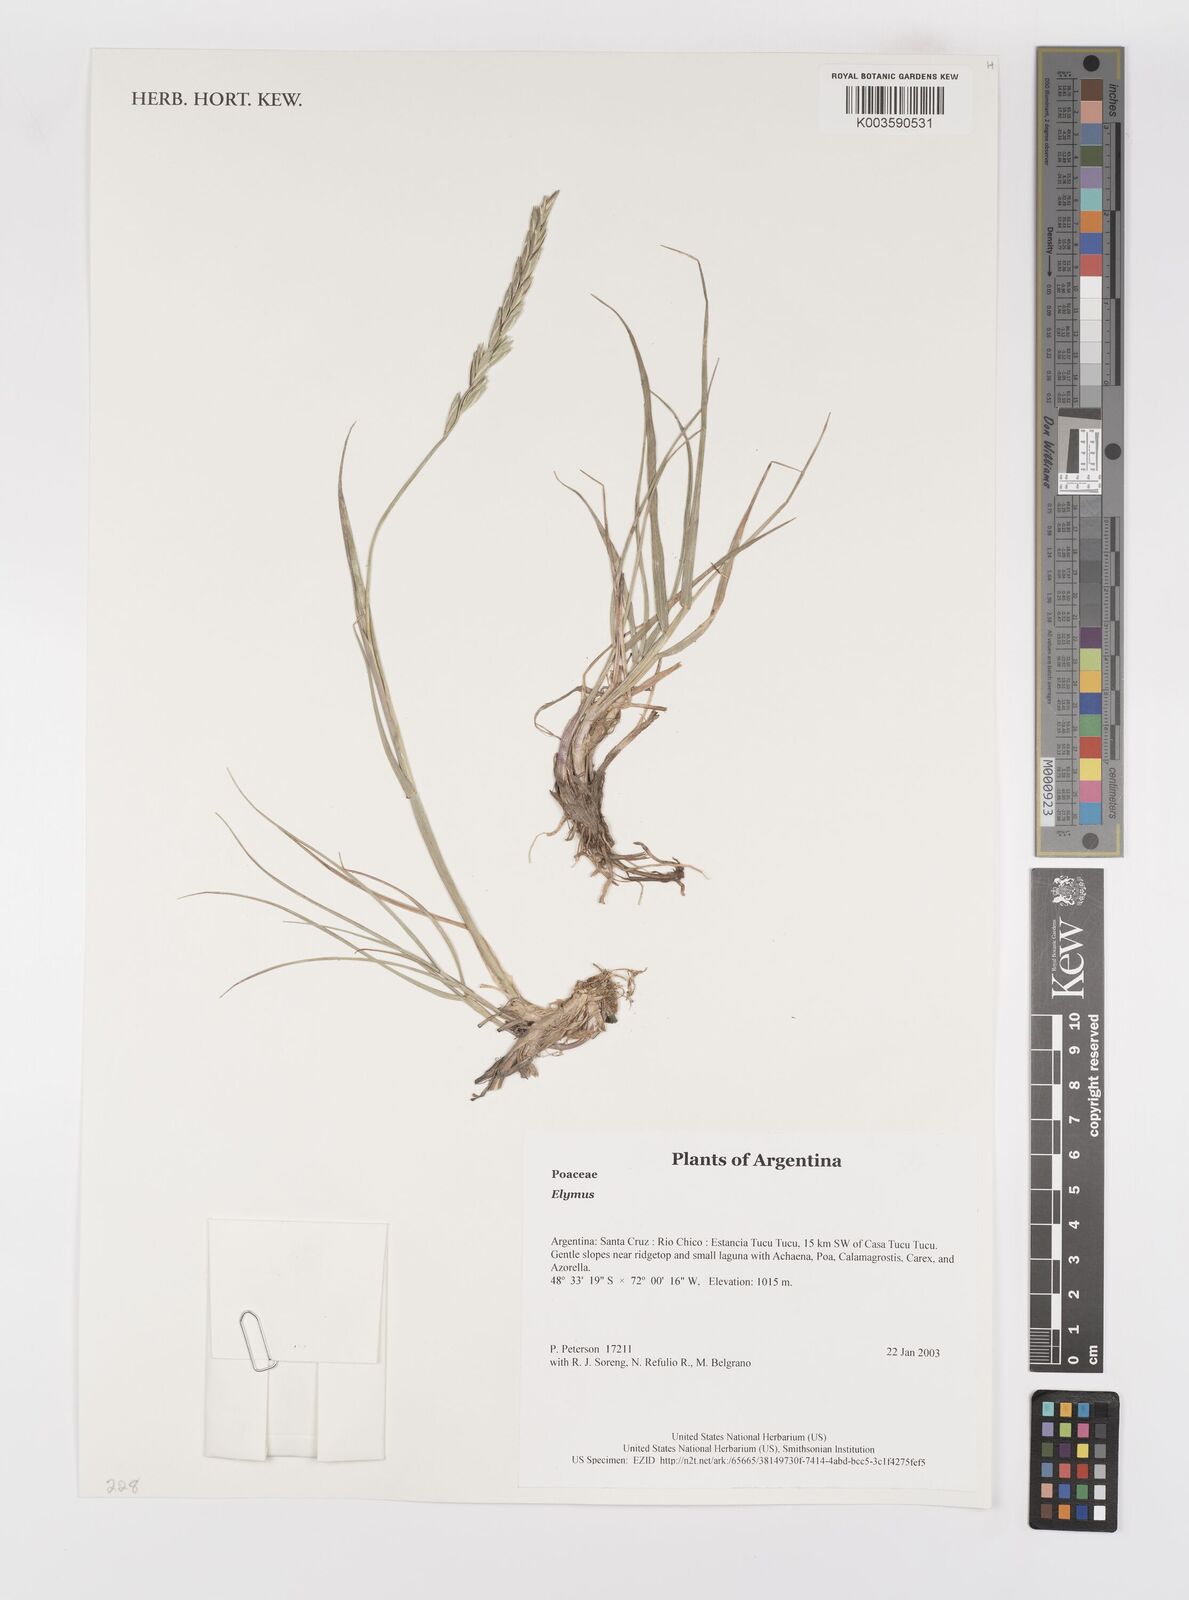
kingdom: Plantae
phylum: Tracheophyta
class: Liliopsida
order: Poales
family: Poaceae
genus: Elymus
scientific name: Elymus
